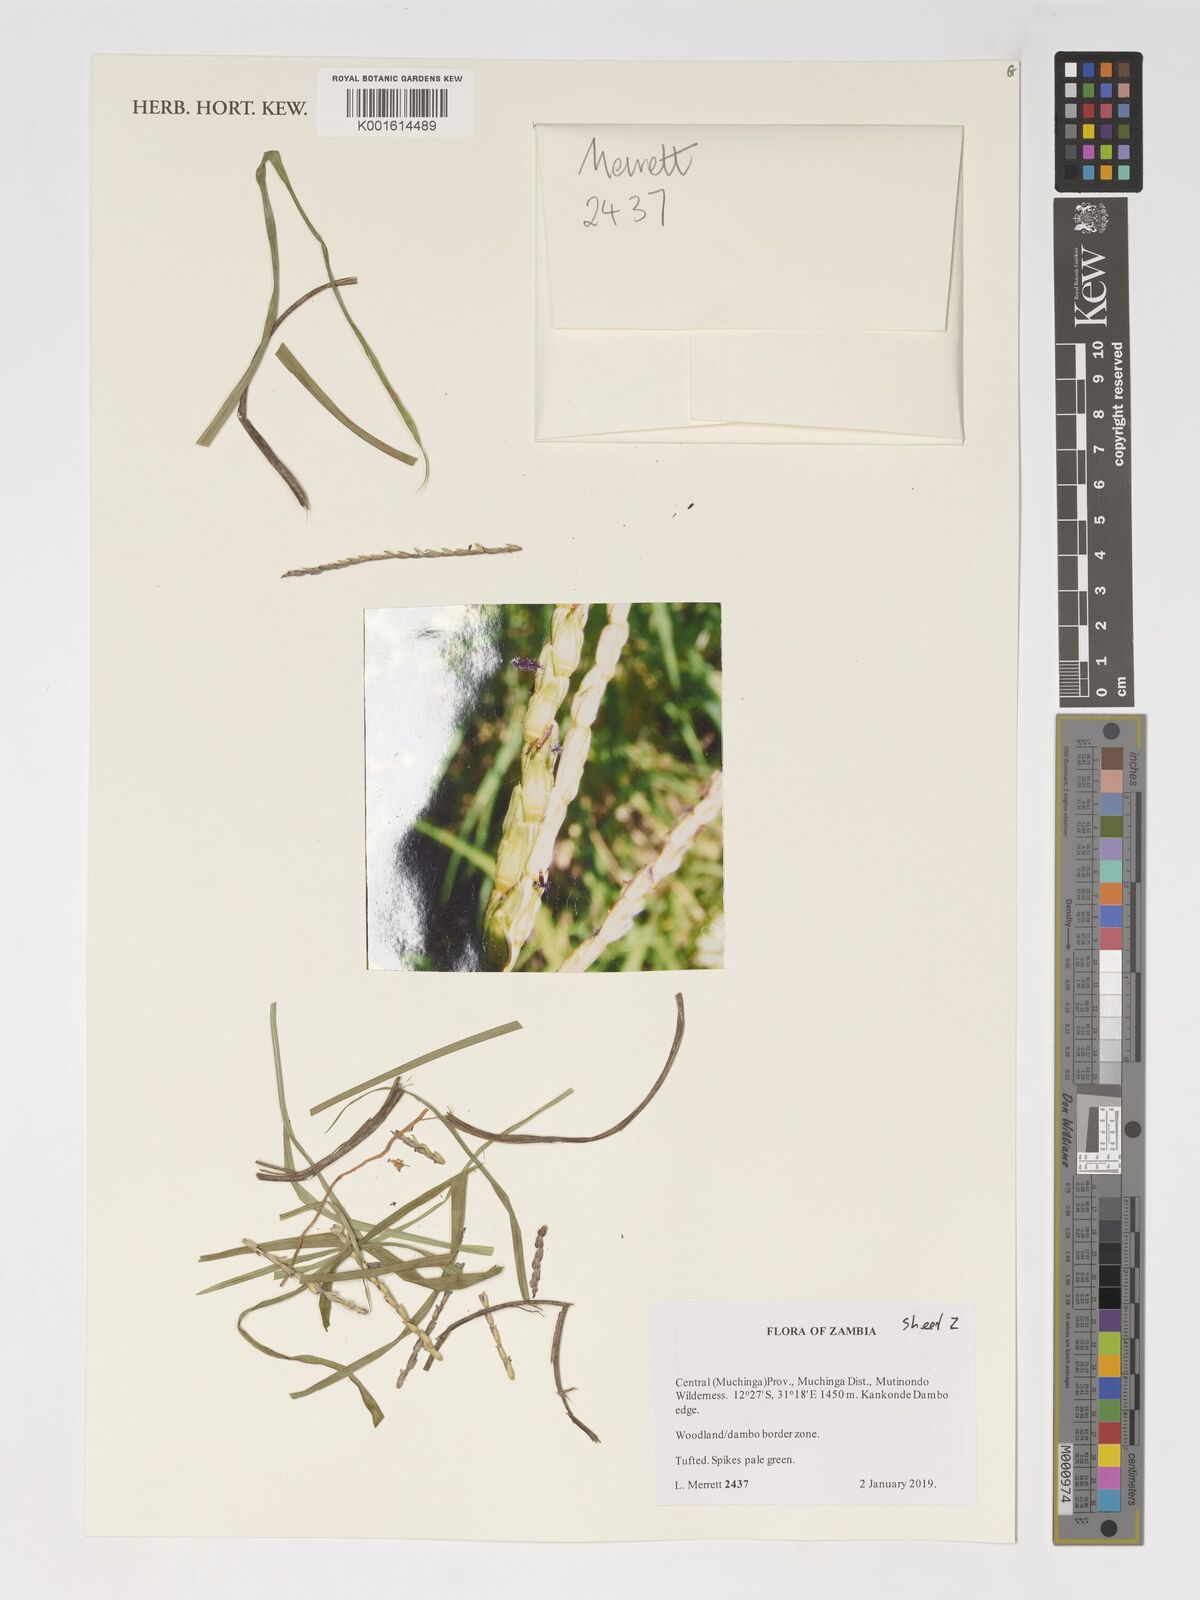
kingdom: Plantae
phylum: Tracheophyta
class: Liliopsida
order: Poales
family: Poaceae
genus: Thyrsia
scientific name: Thyrsia huillensis
